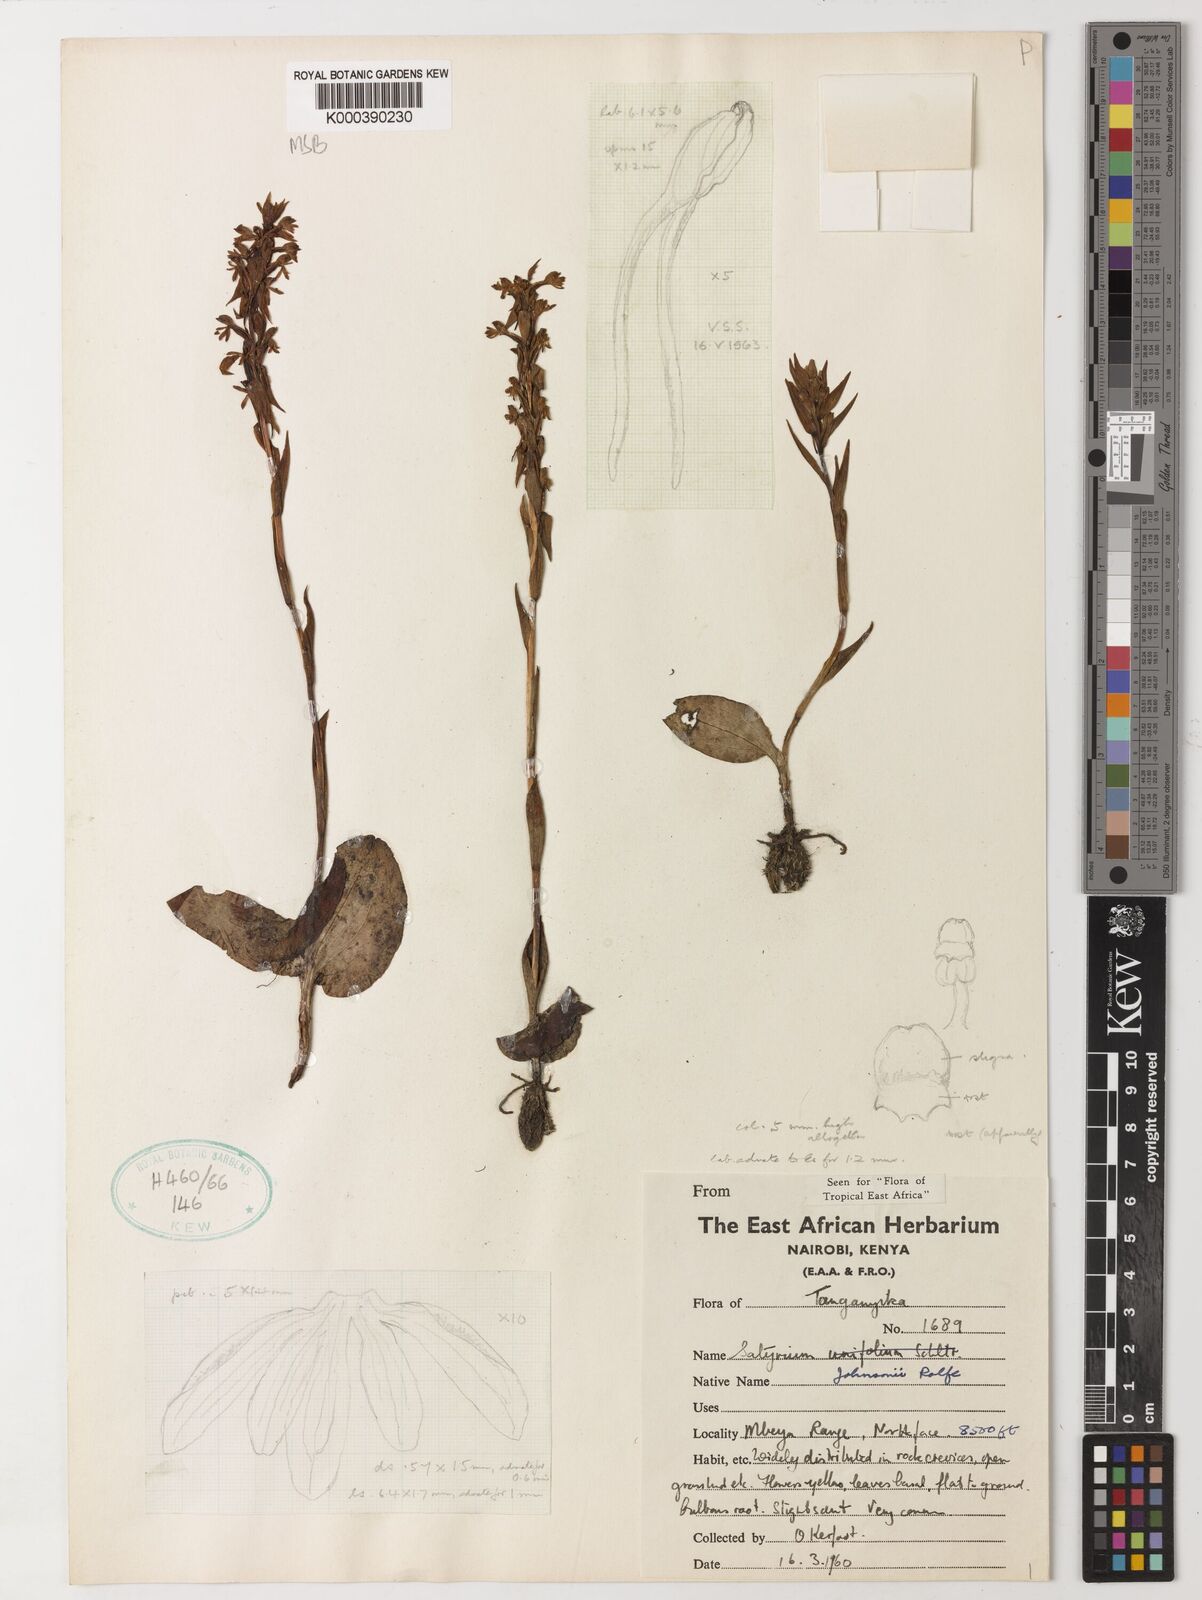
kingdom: Plantae
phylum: Tracheophyta
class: Liliopsida
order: Asparagales
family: Orchidaceae
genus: Satyrium
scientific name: Satyrium johnsonii
